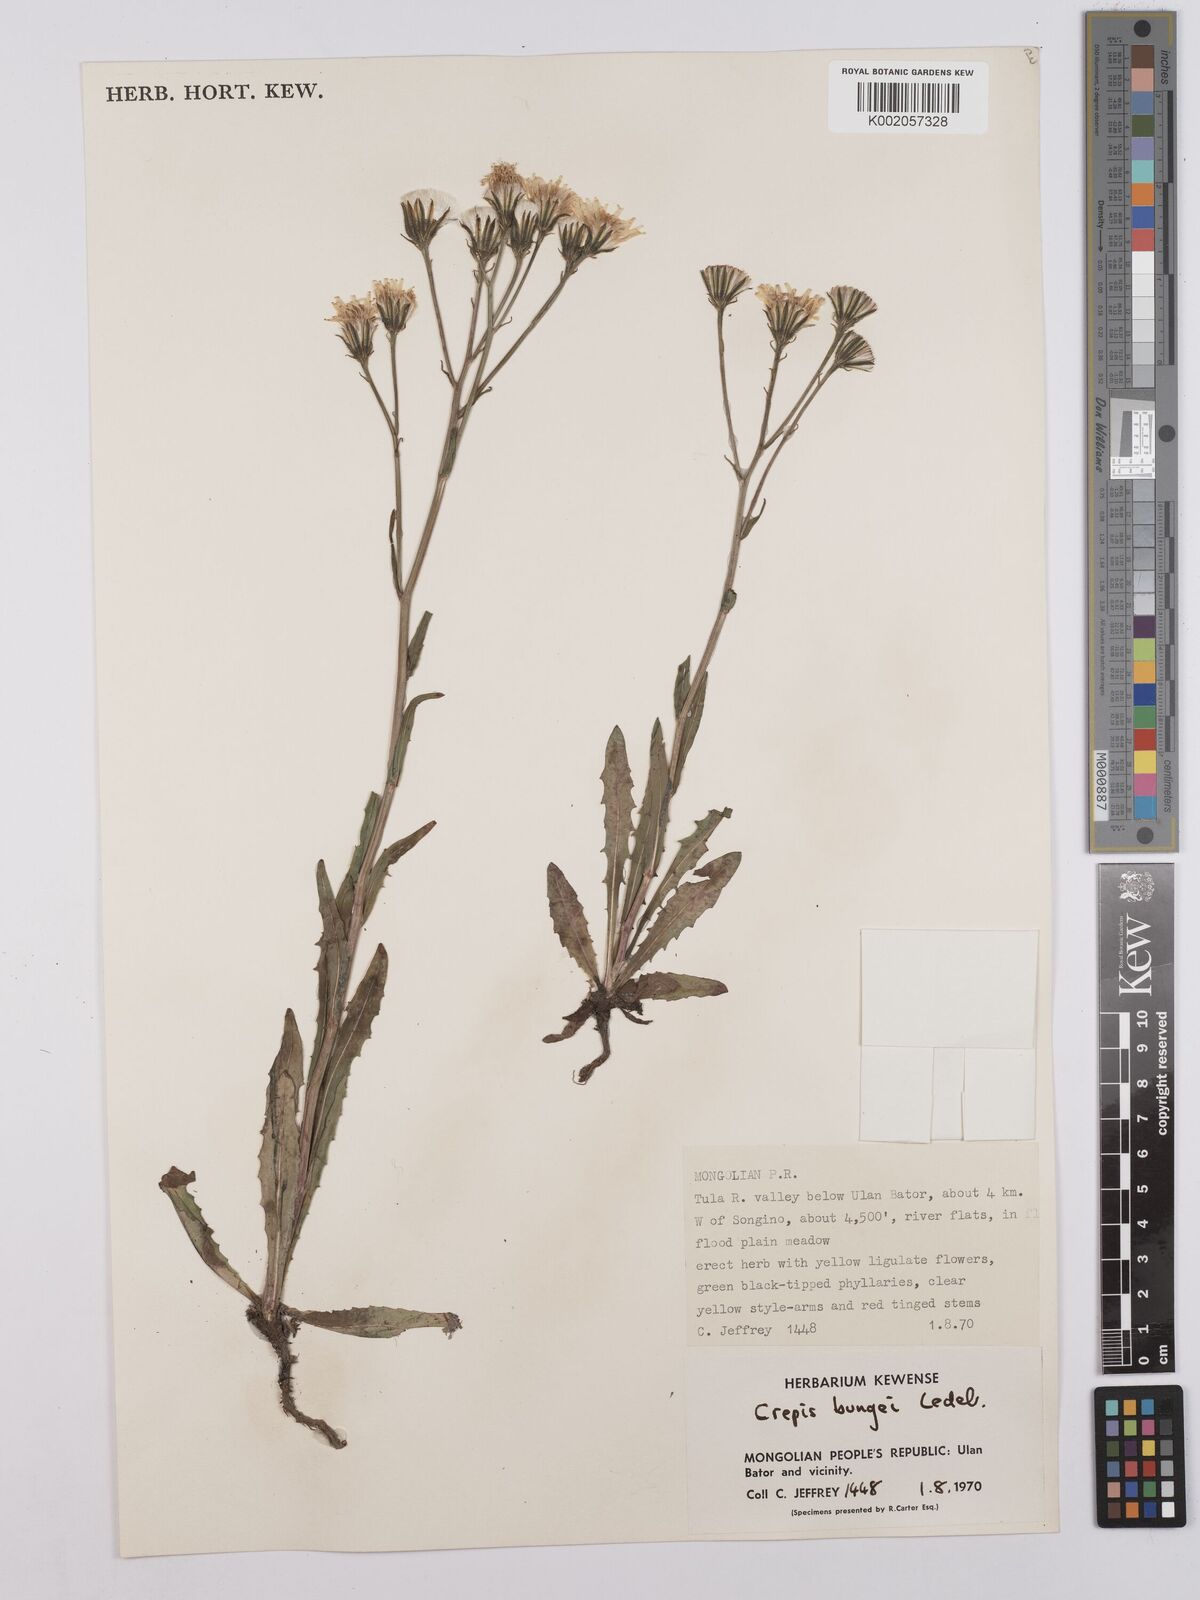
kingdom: Plantae
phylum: Tracheophyta
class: Magnoliopsida
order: Asterales
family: Asteraceae
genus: Crepis
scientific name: Crepis bungei
